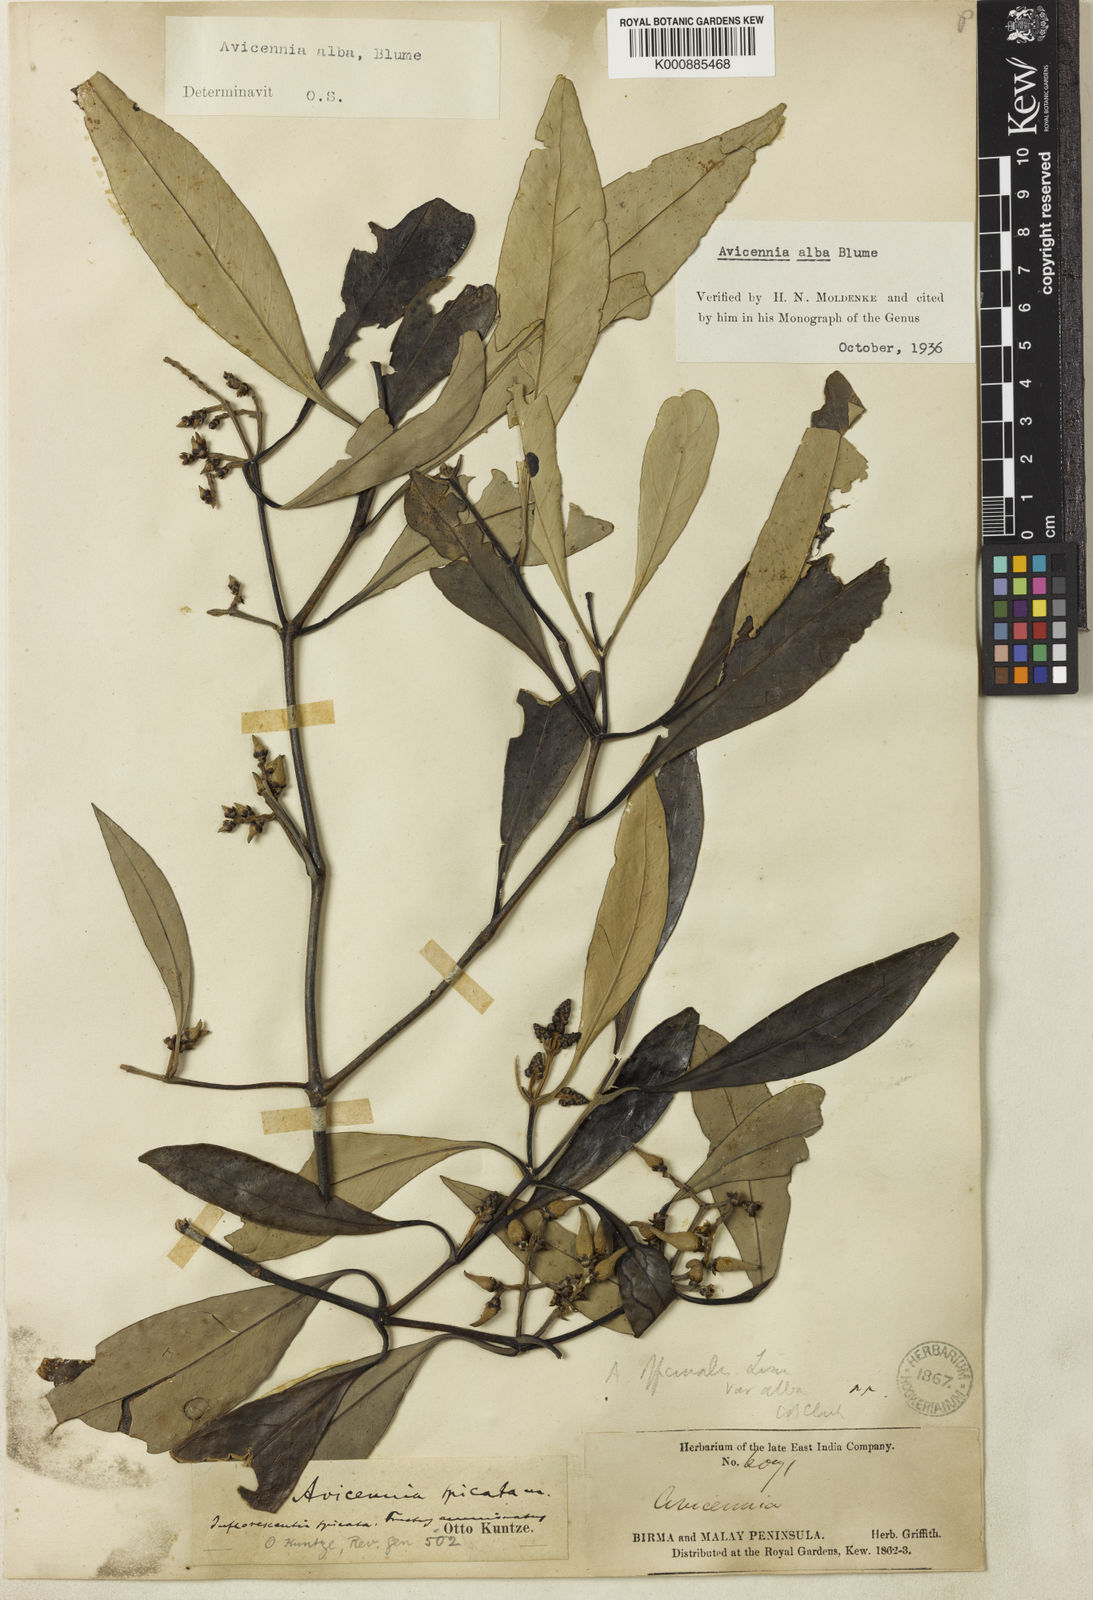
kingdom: Plantae
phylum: Tracheophyta
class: Magnoliopsida
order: Lamiales
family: Acanthaceae
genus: Avicennia
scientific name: Avicennia alba
